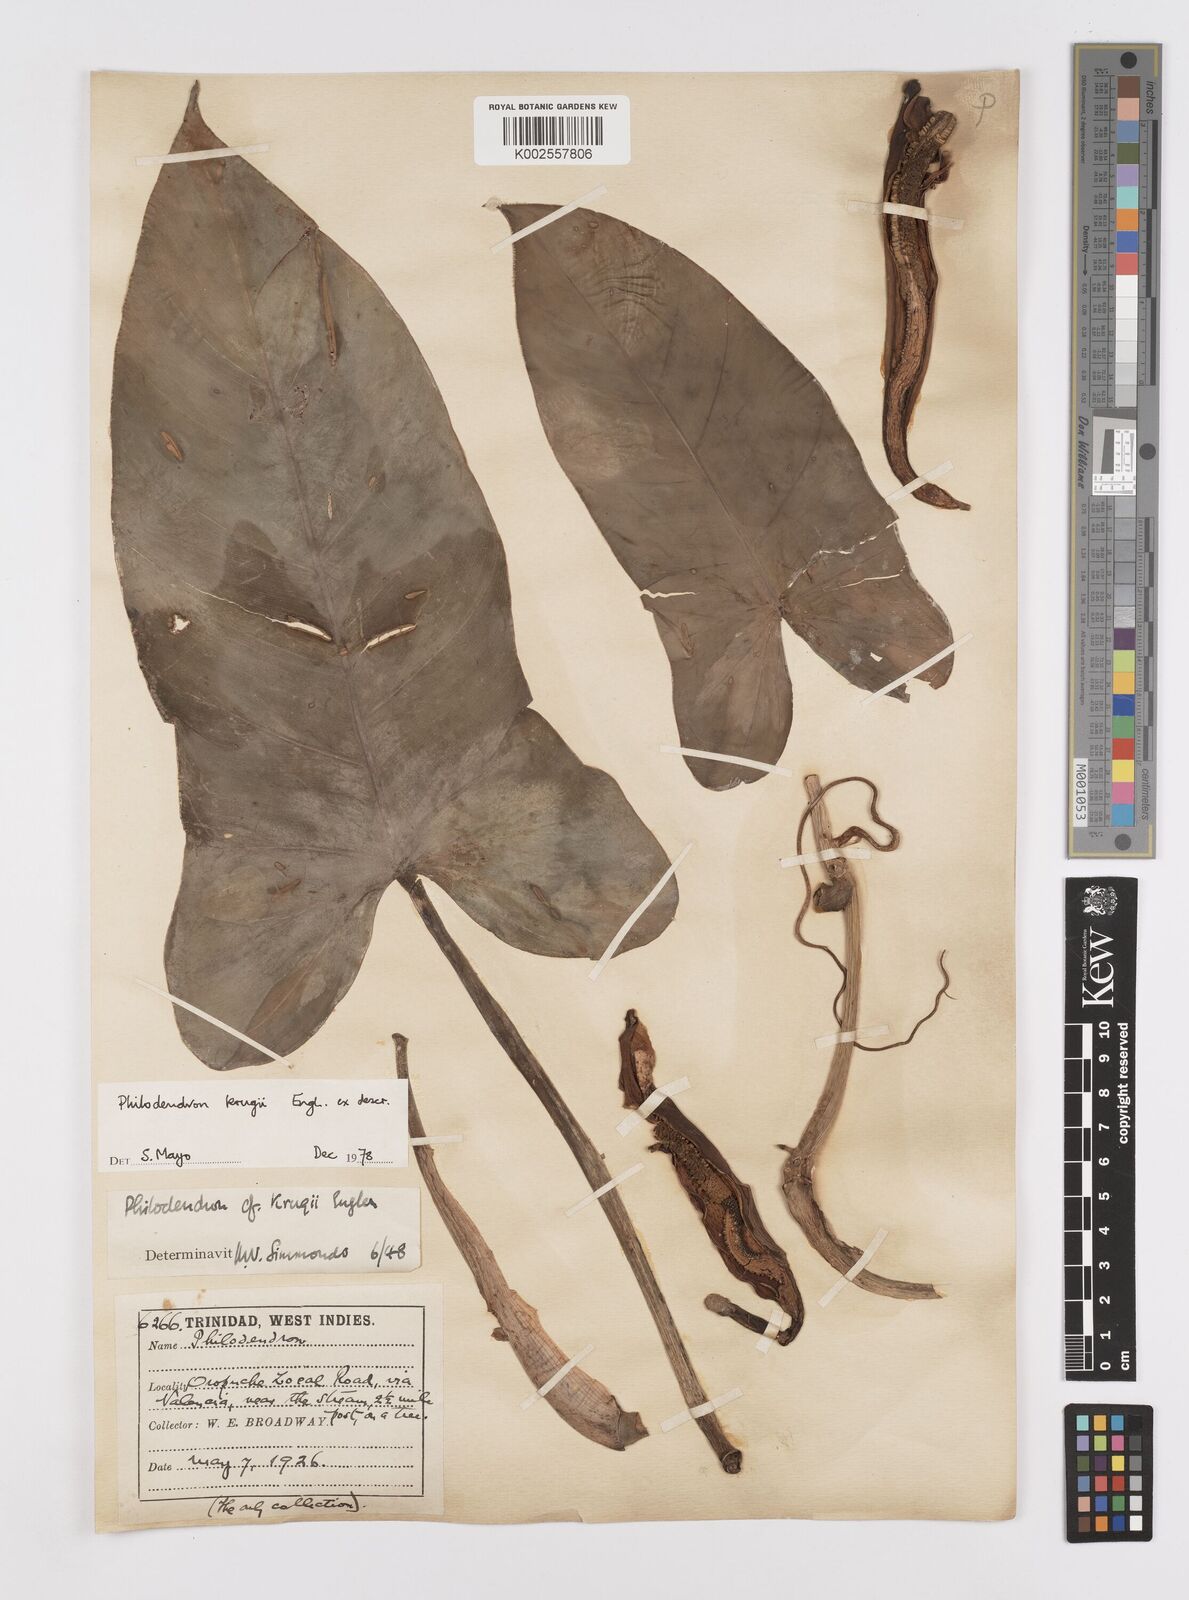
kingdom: Plantae
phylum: Tracheophyta
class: Liliopsida
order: Alismatales
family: Araceae
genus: Philodendron
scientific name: Philodendron krugii
